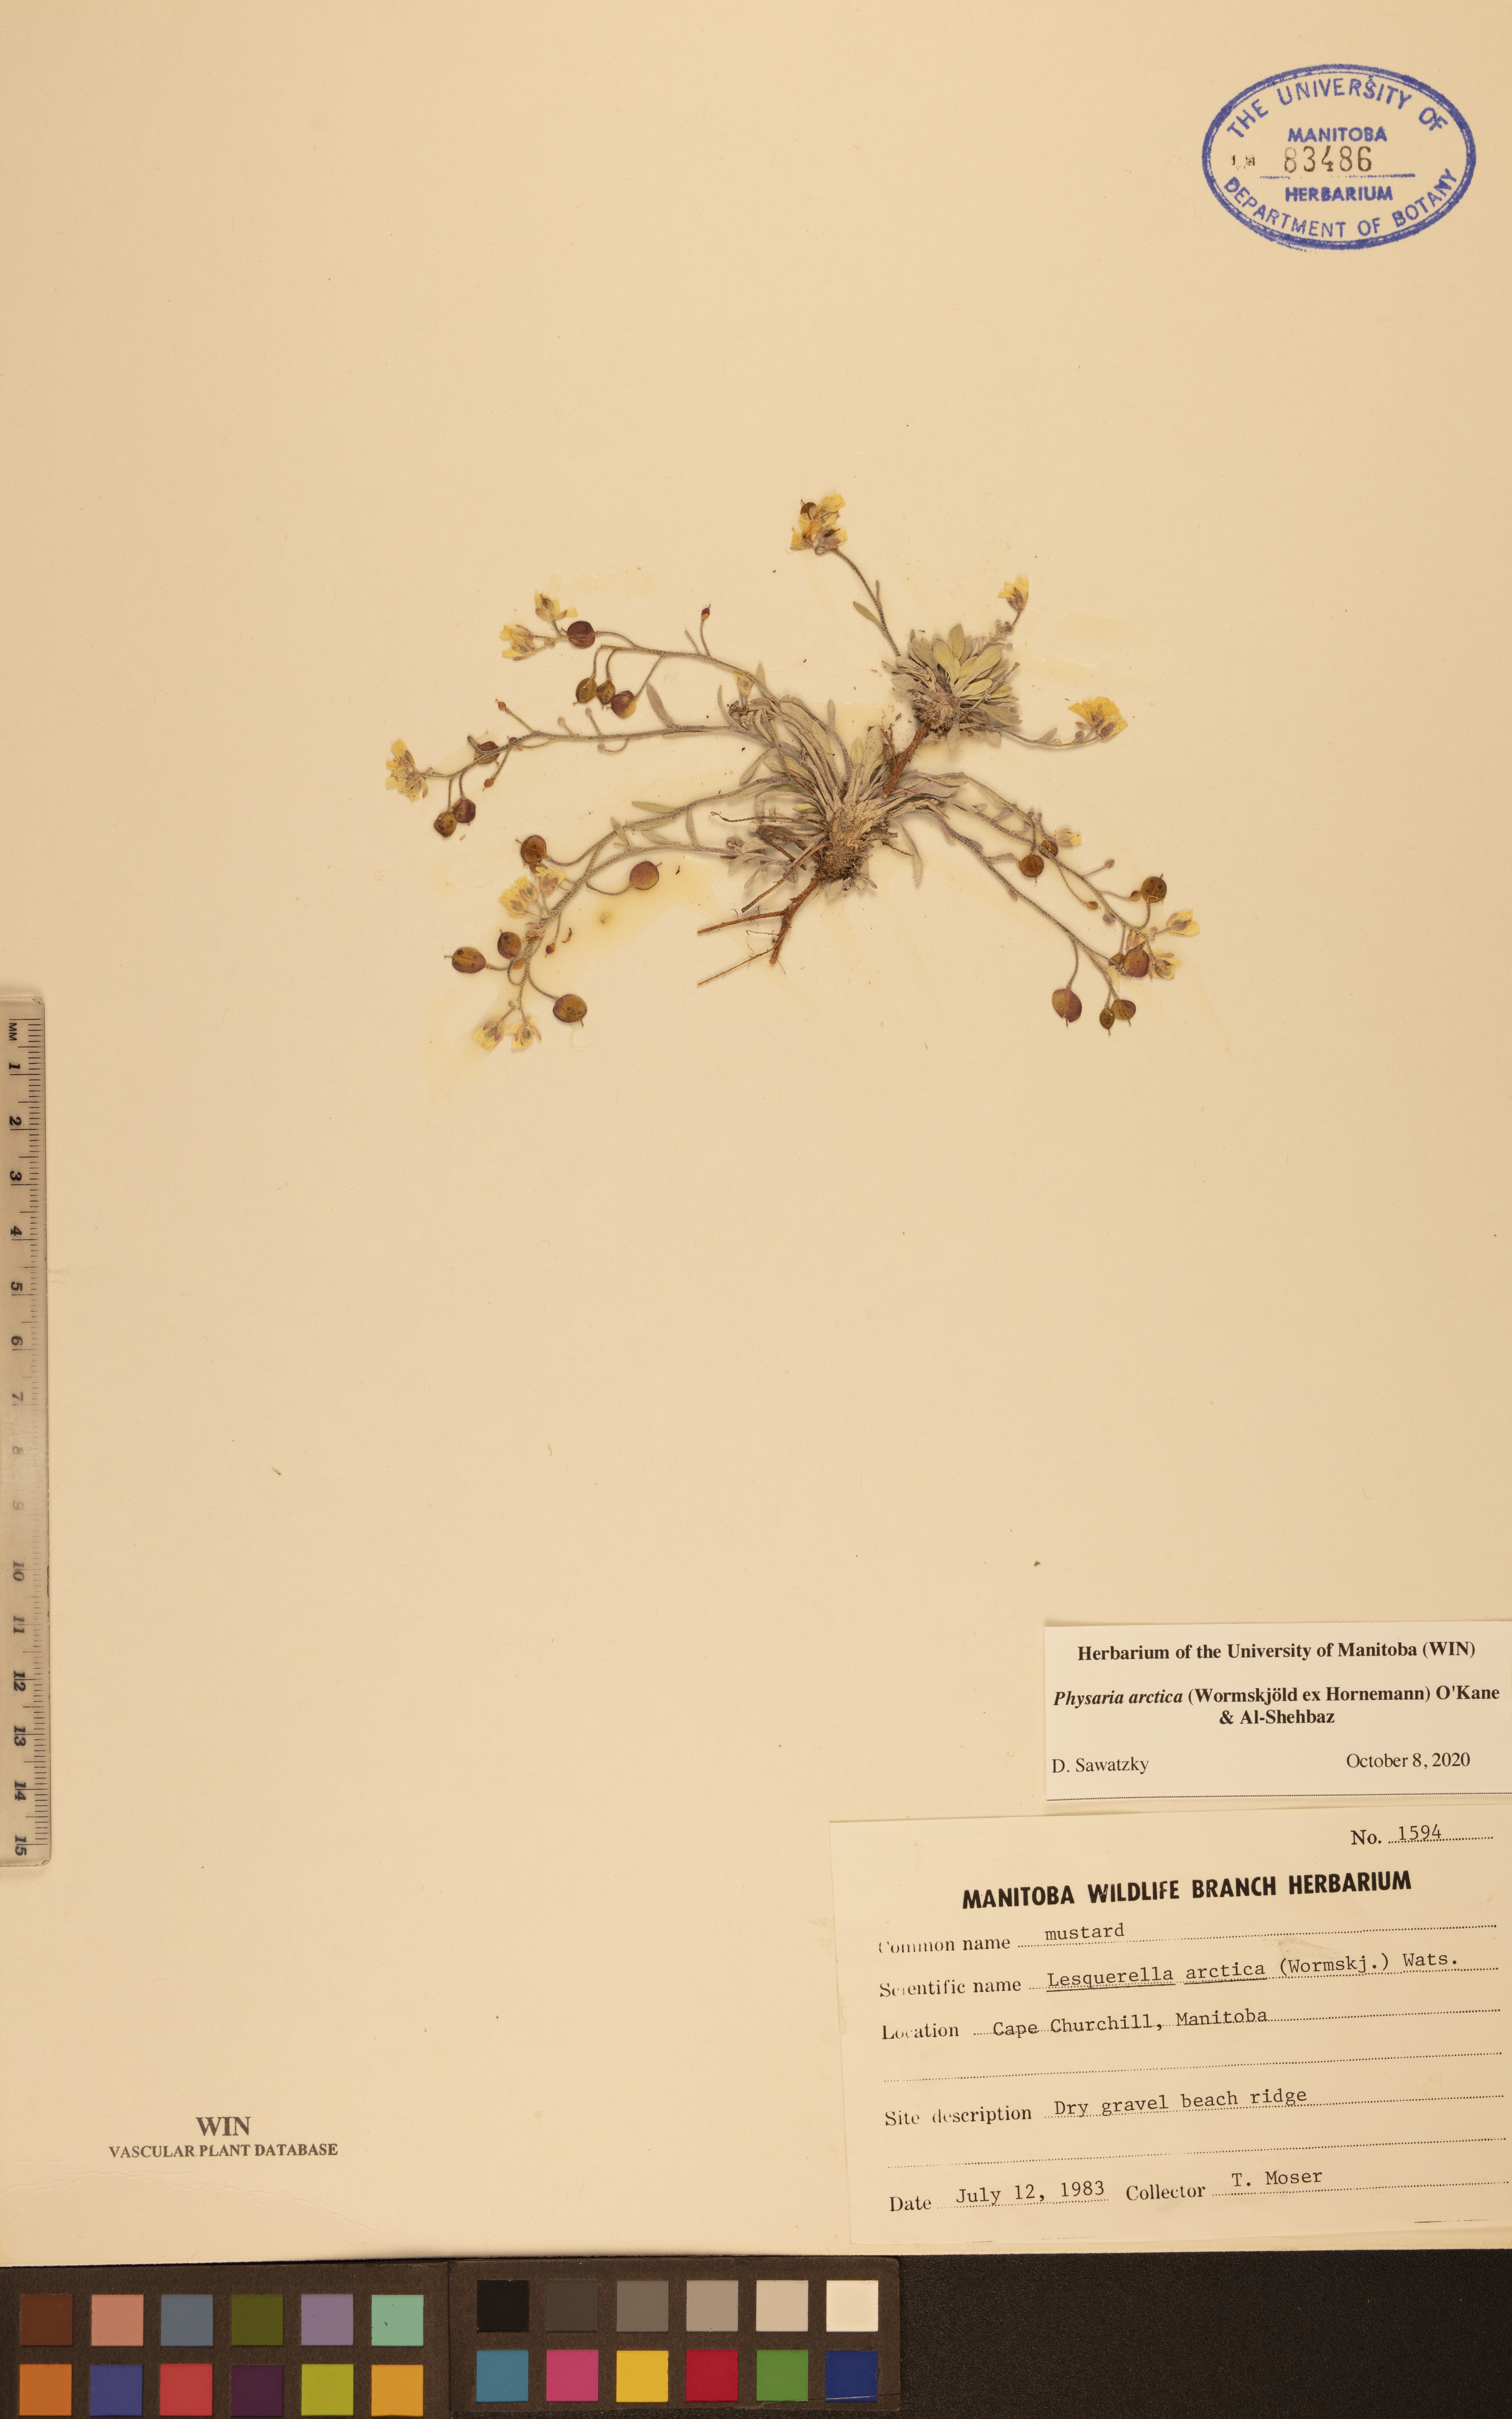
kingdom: Plantae
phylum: Tracheophyta
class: Magnoliopsida
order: Brassicales
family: Brassicaceae
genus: Physaria
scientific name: Physaria arctica
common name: Arctic bladderpod
